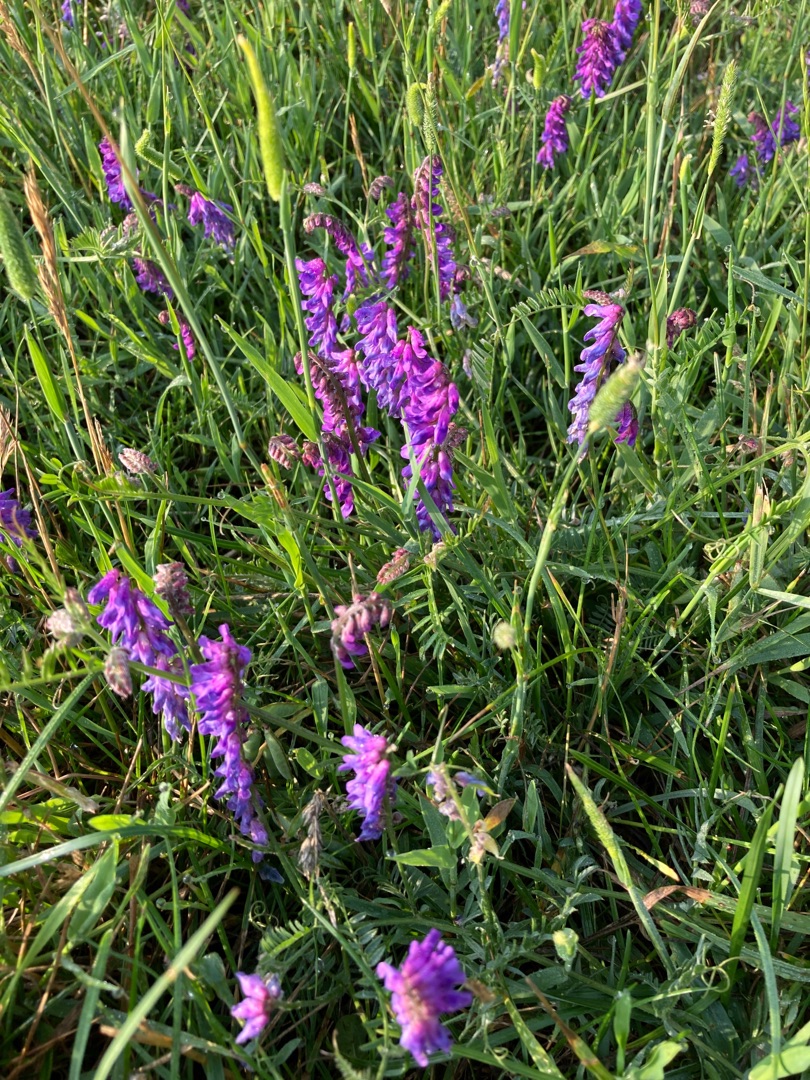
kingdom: Plantae
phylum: Tracheophyta
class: Magnoliopsida
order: Fabales
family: Fabaceae
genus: Vicia
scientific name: Vicia cracca
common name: Muse-vikke
